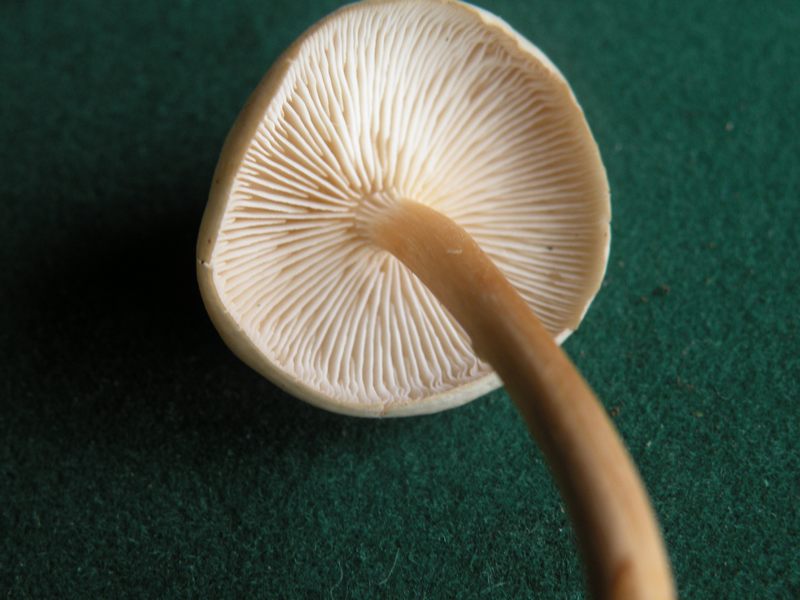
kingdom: Fungi
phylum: Basidiomycota
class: Agaricomycetes
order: Agaricales
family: Omphalotaceae
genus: Gymnopus
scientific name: Gymnopus aquosus
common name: bleg fladhat
